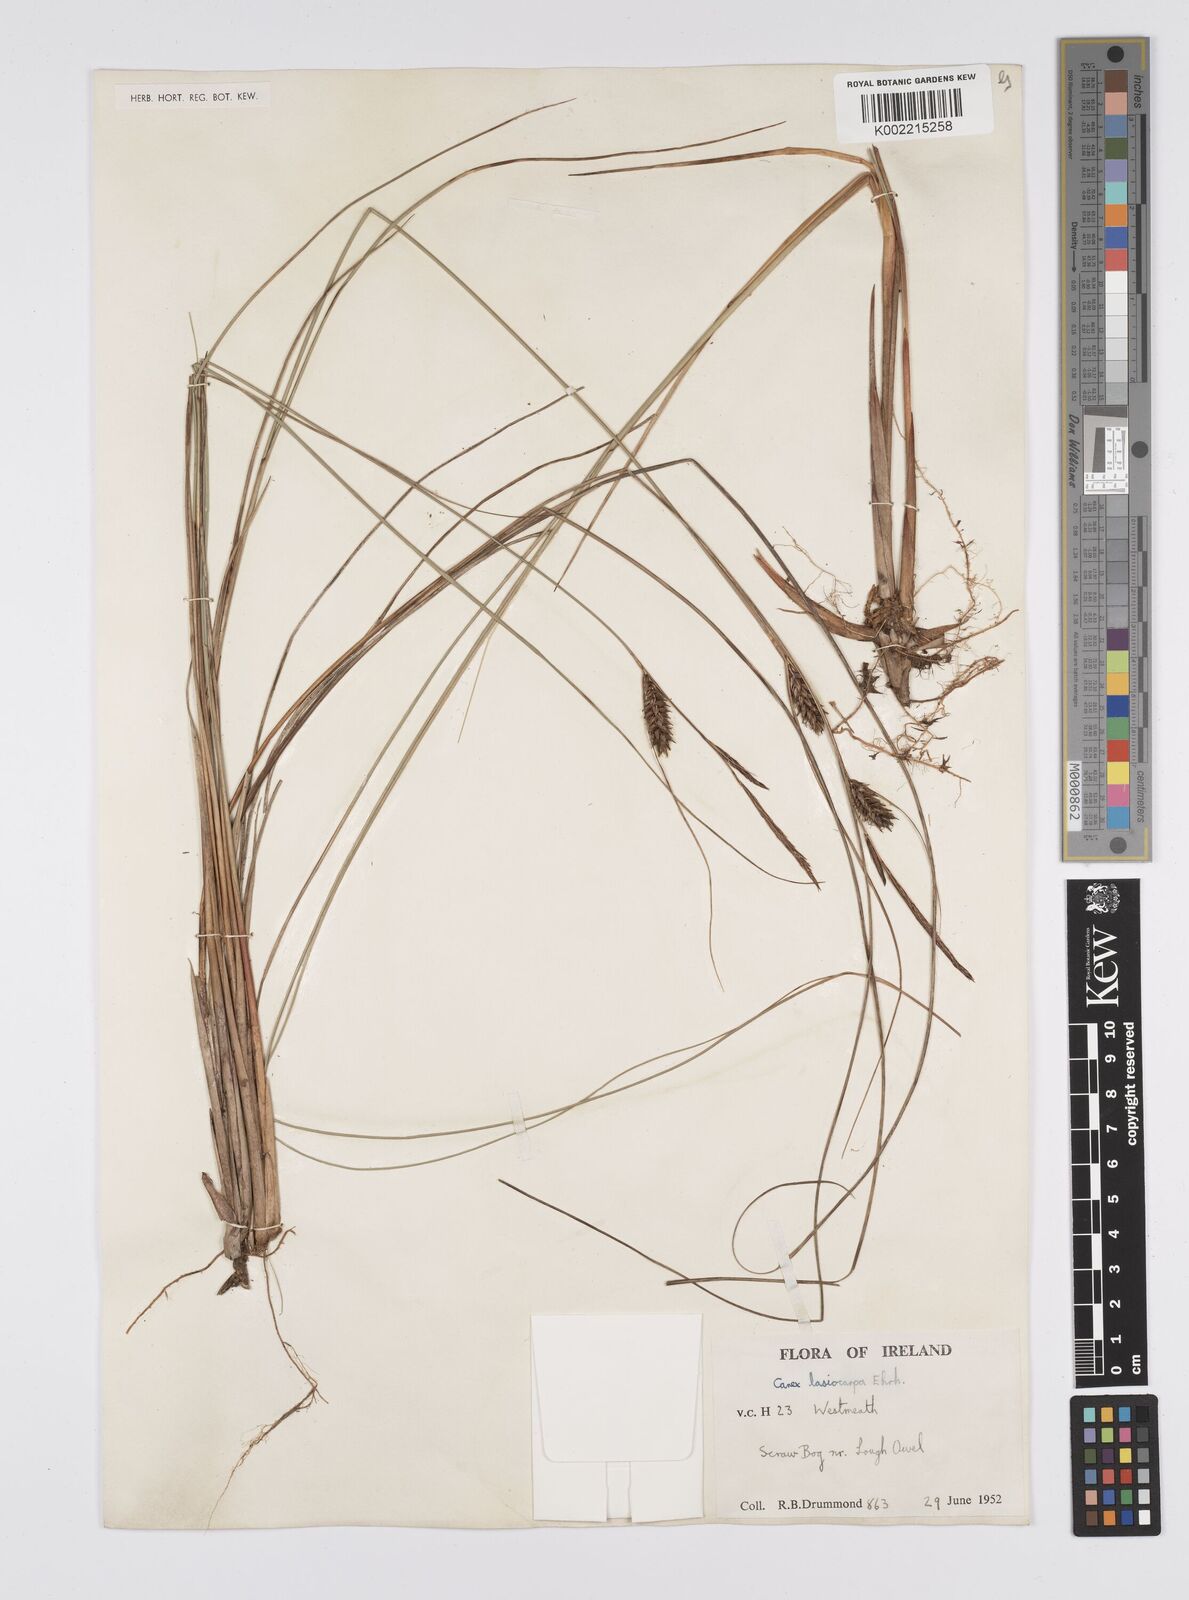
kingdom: Plantae
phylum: Tracheophyta
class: Liliopsida
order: Poales
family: Cyperaceae
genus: Carex
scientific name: Carex lasiocarpa
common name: Slender sedge
